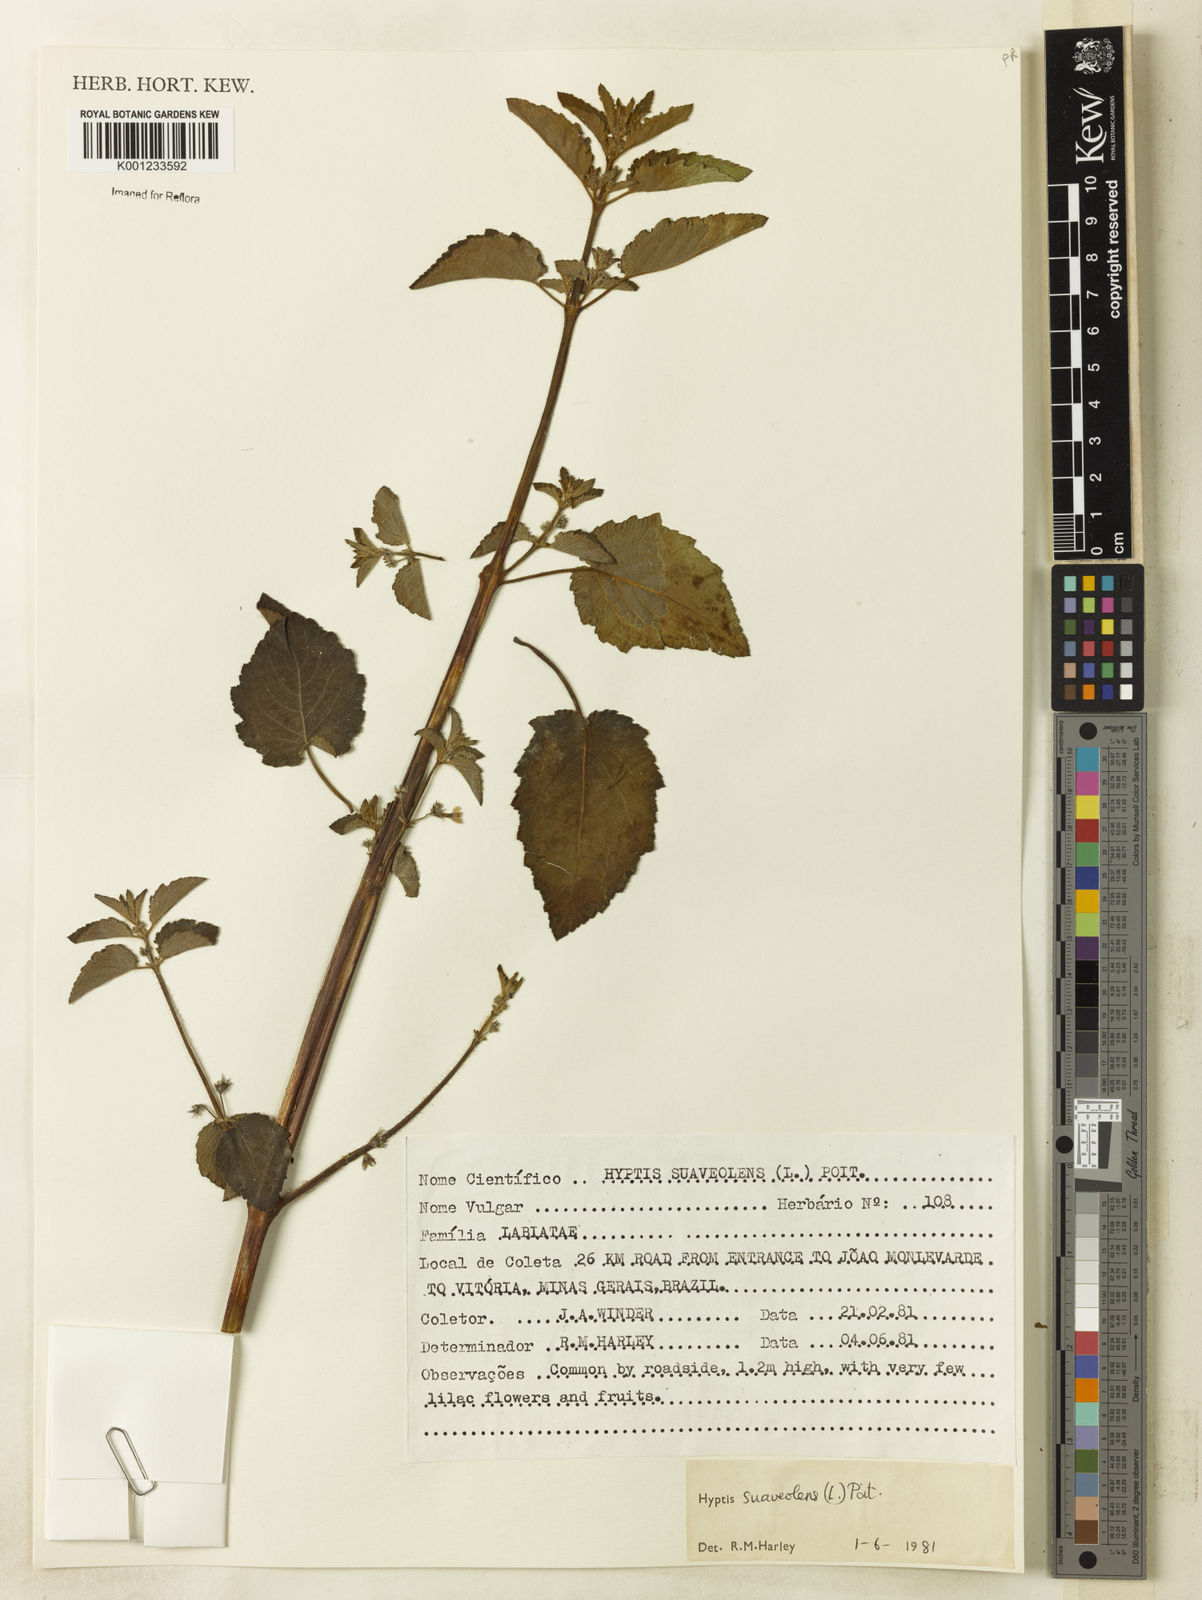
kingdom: Plantae
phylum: Tracheophyta
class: Magnoliopsida
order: Lamiales
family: Lamiaceae
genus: Mesosphaerum
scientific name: Mesosphaerum suaveolens
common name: Pignut
